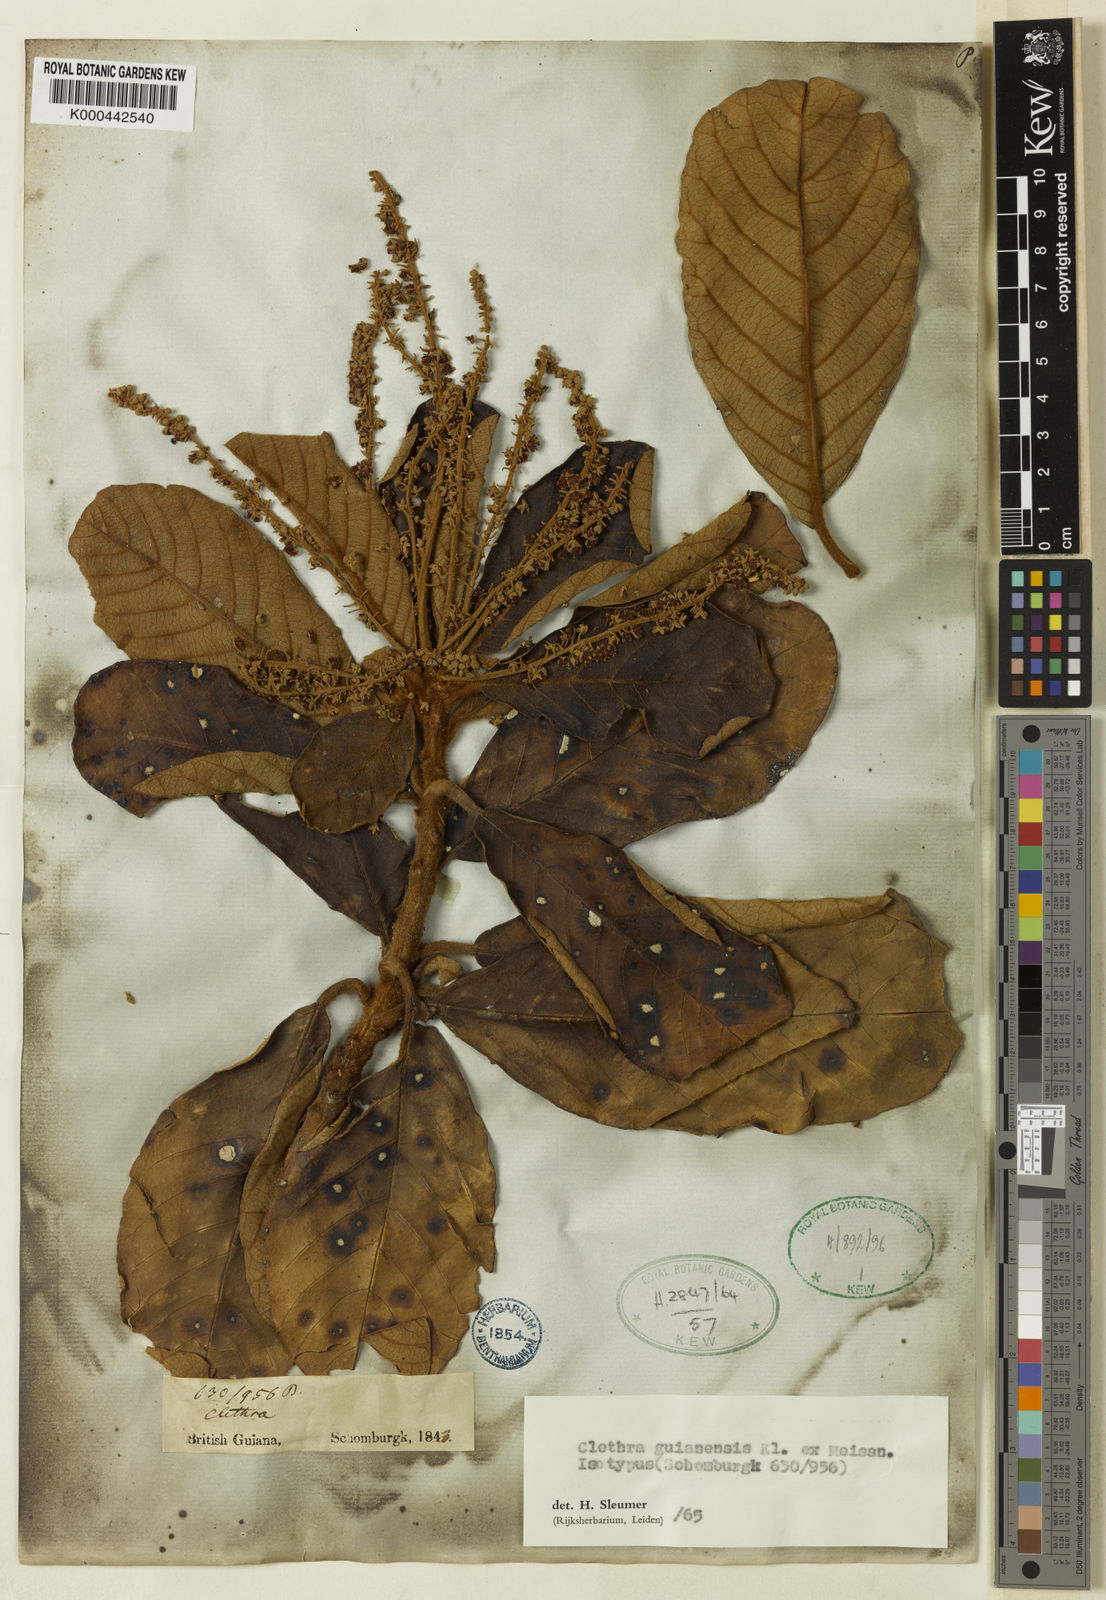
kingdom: Plantae
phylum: Tracheophyta
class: Magnoliopsida
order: Ericales
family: Clethraceae
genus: Clethra
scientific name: Clethra guyanensis
